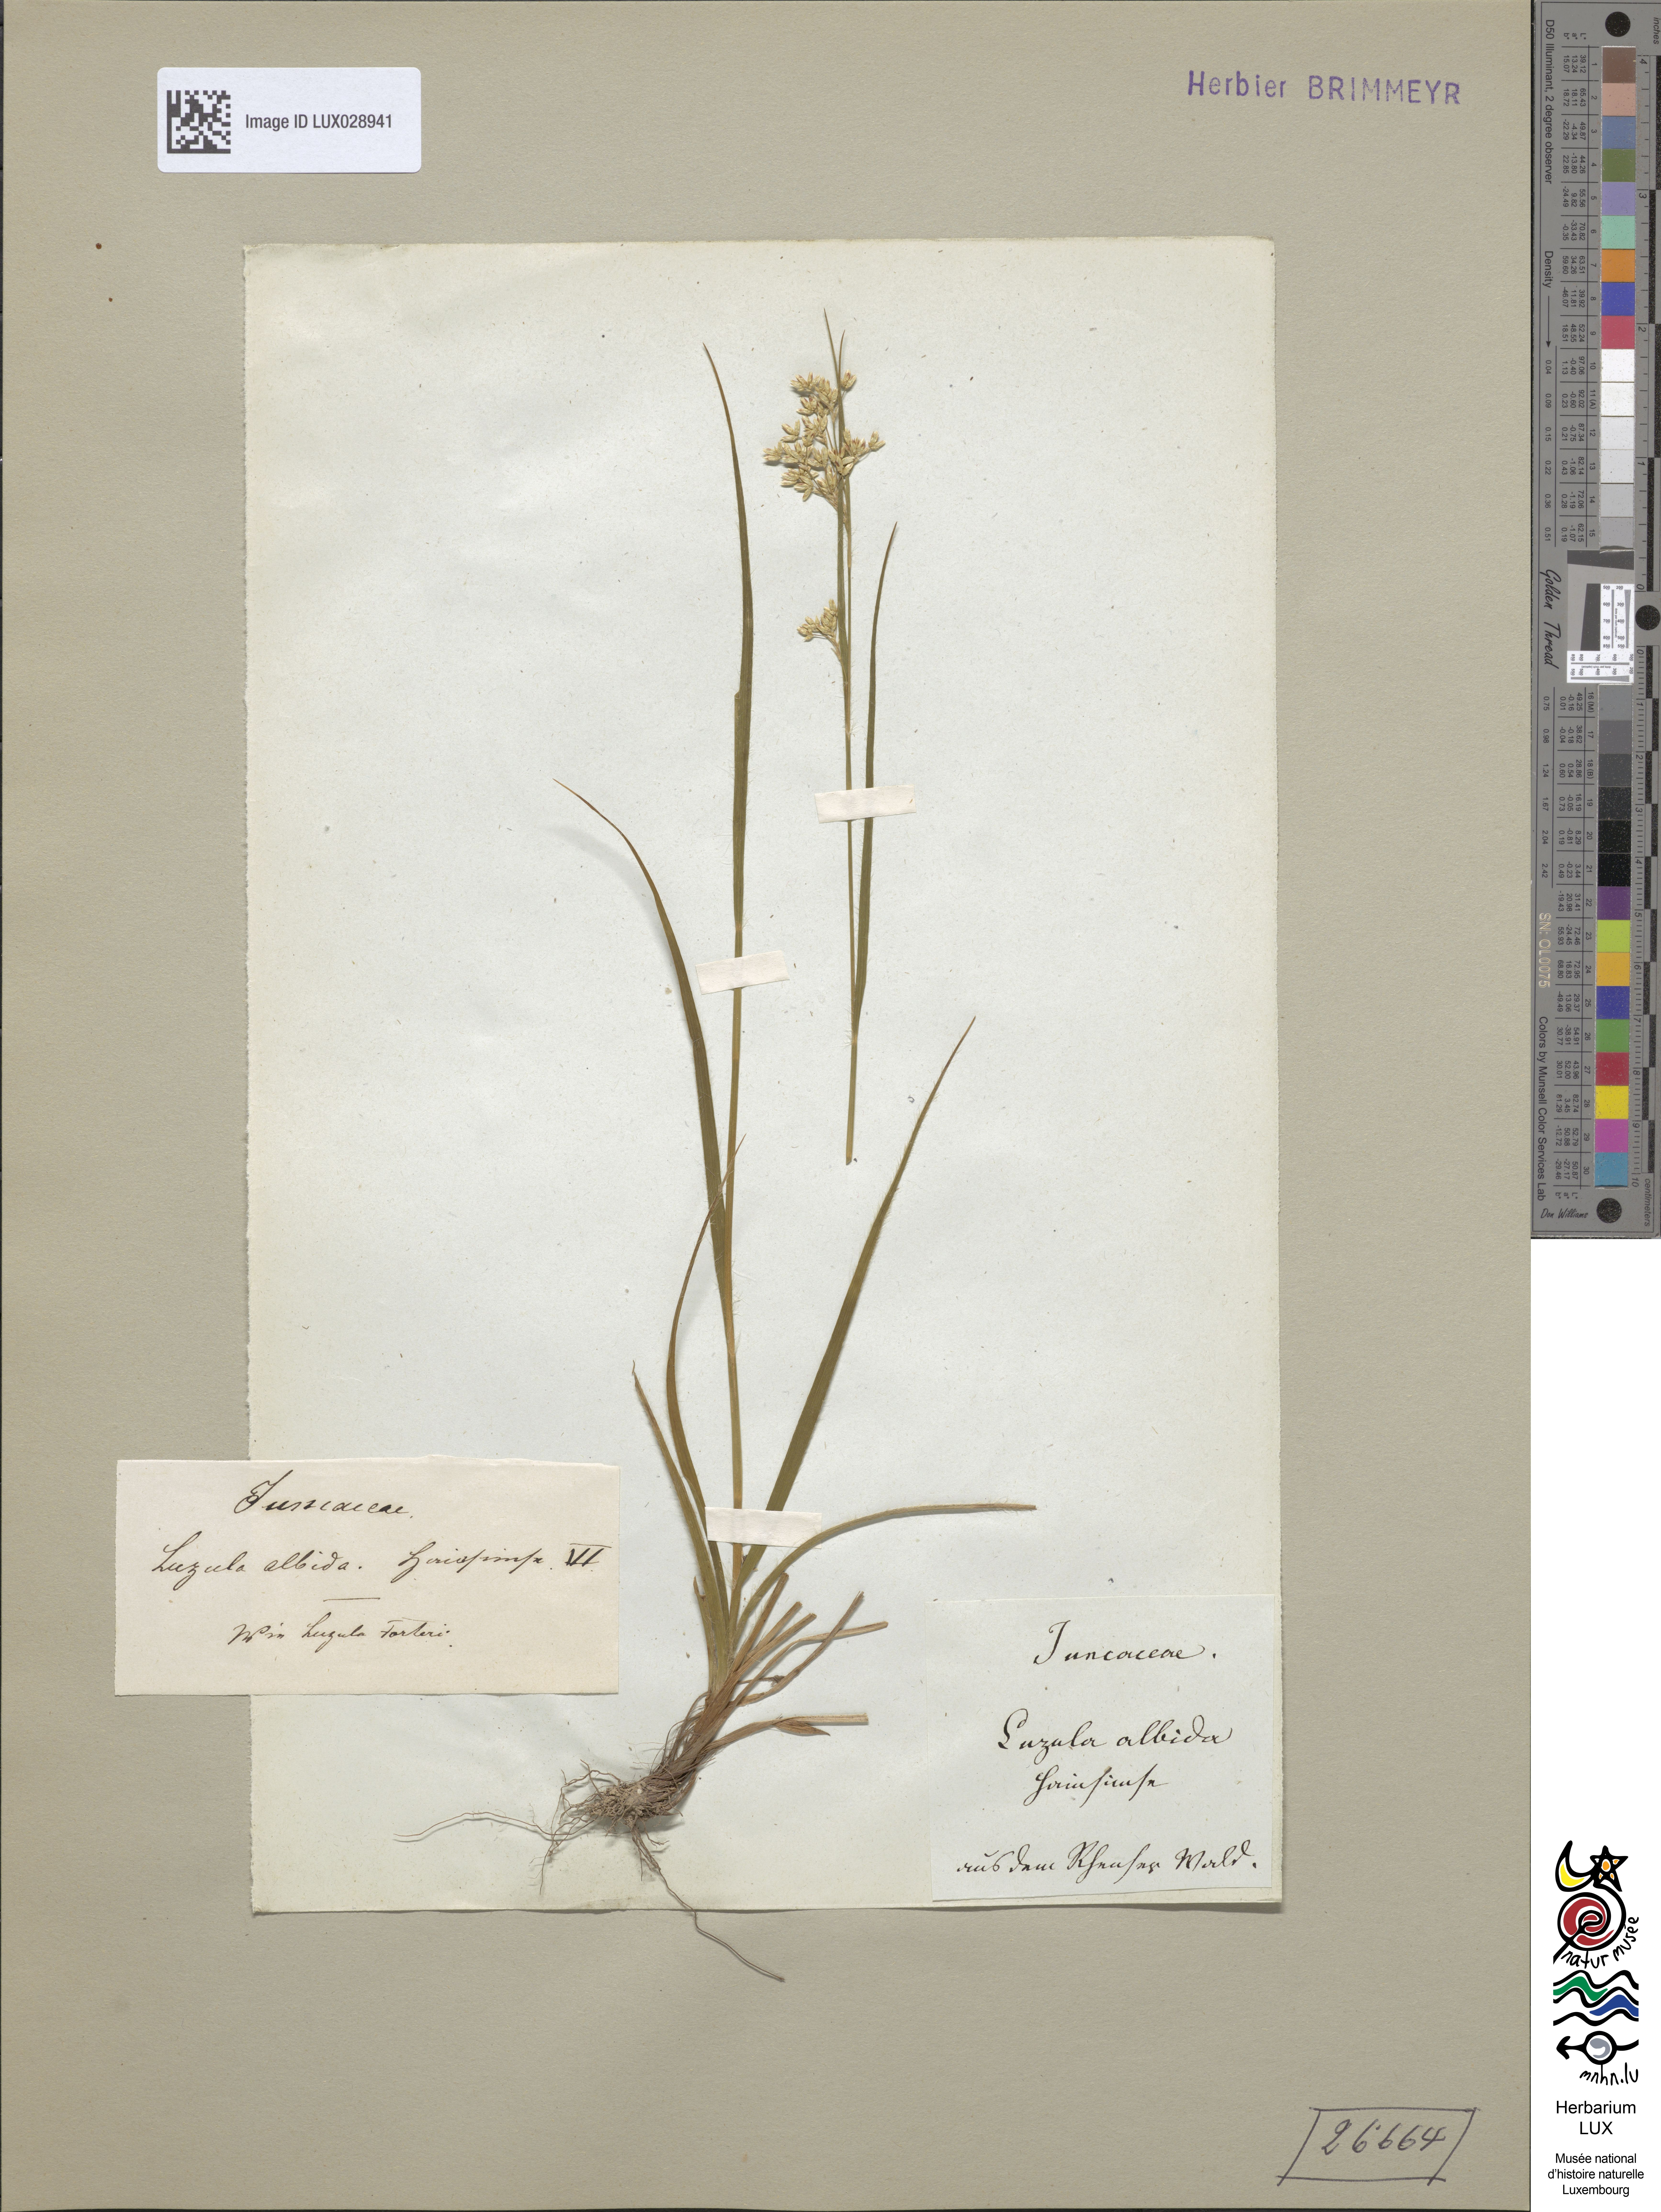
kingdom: Plantae
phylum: Tracheophyta
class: Liliopsida
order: Poales
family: Juncaceae
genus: Luzula
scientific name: Luzula luzuloides
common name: White wood-rush
